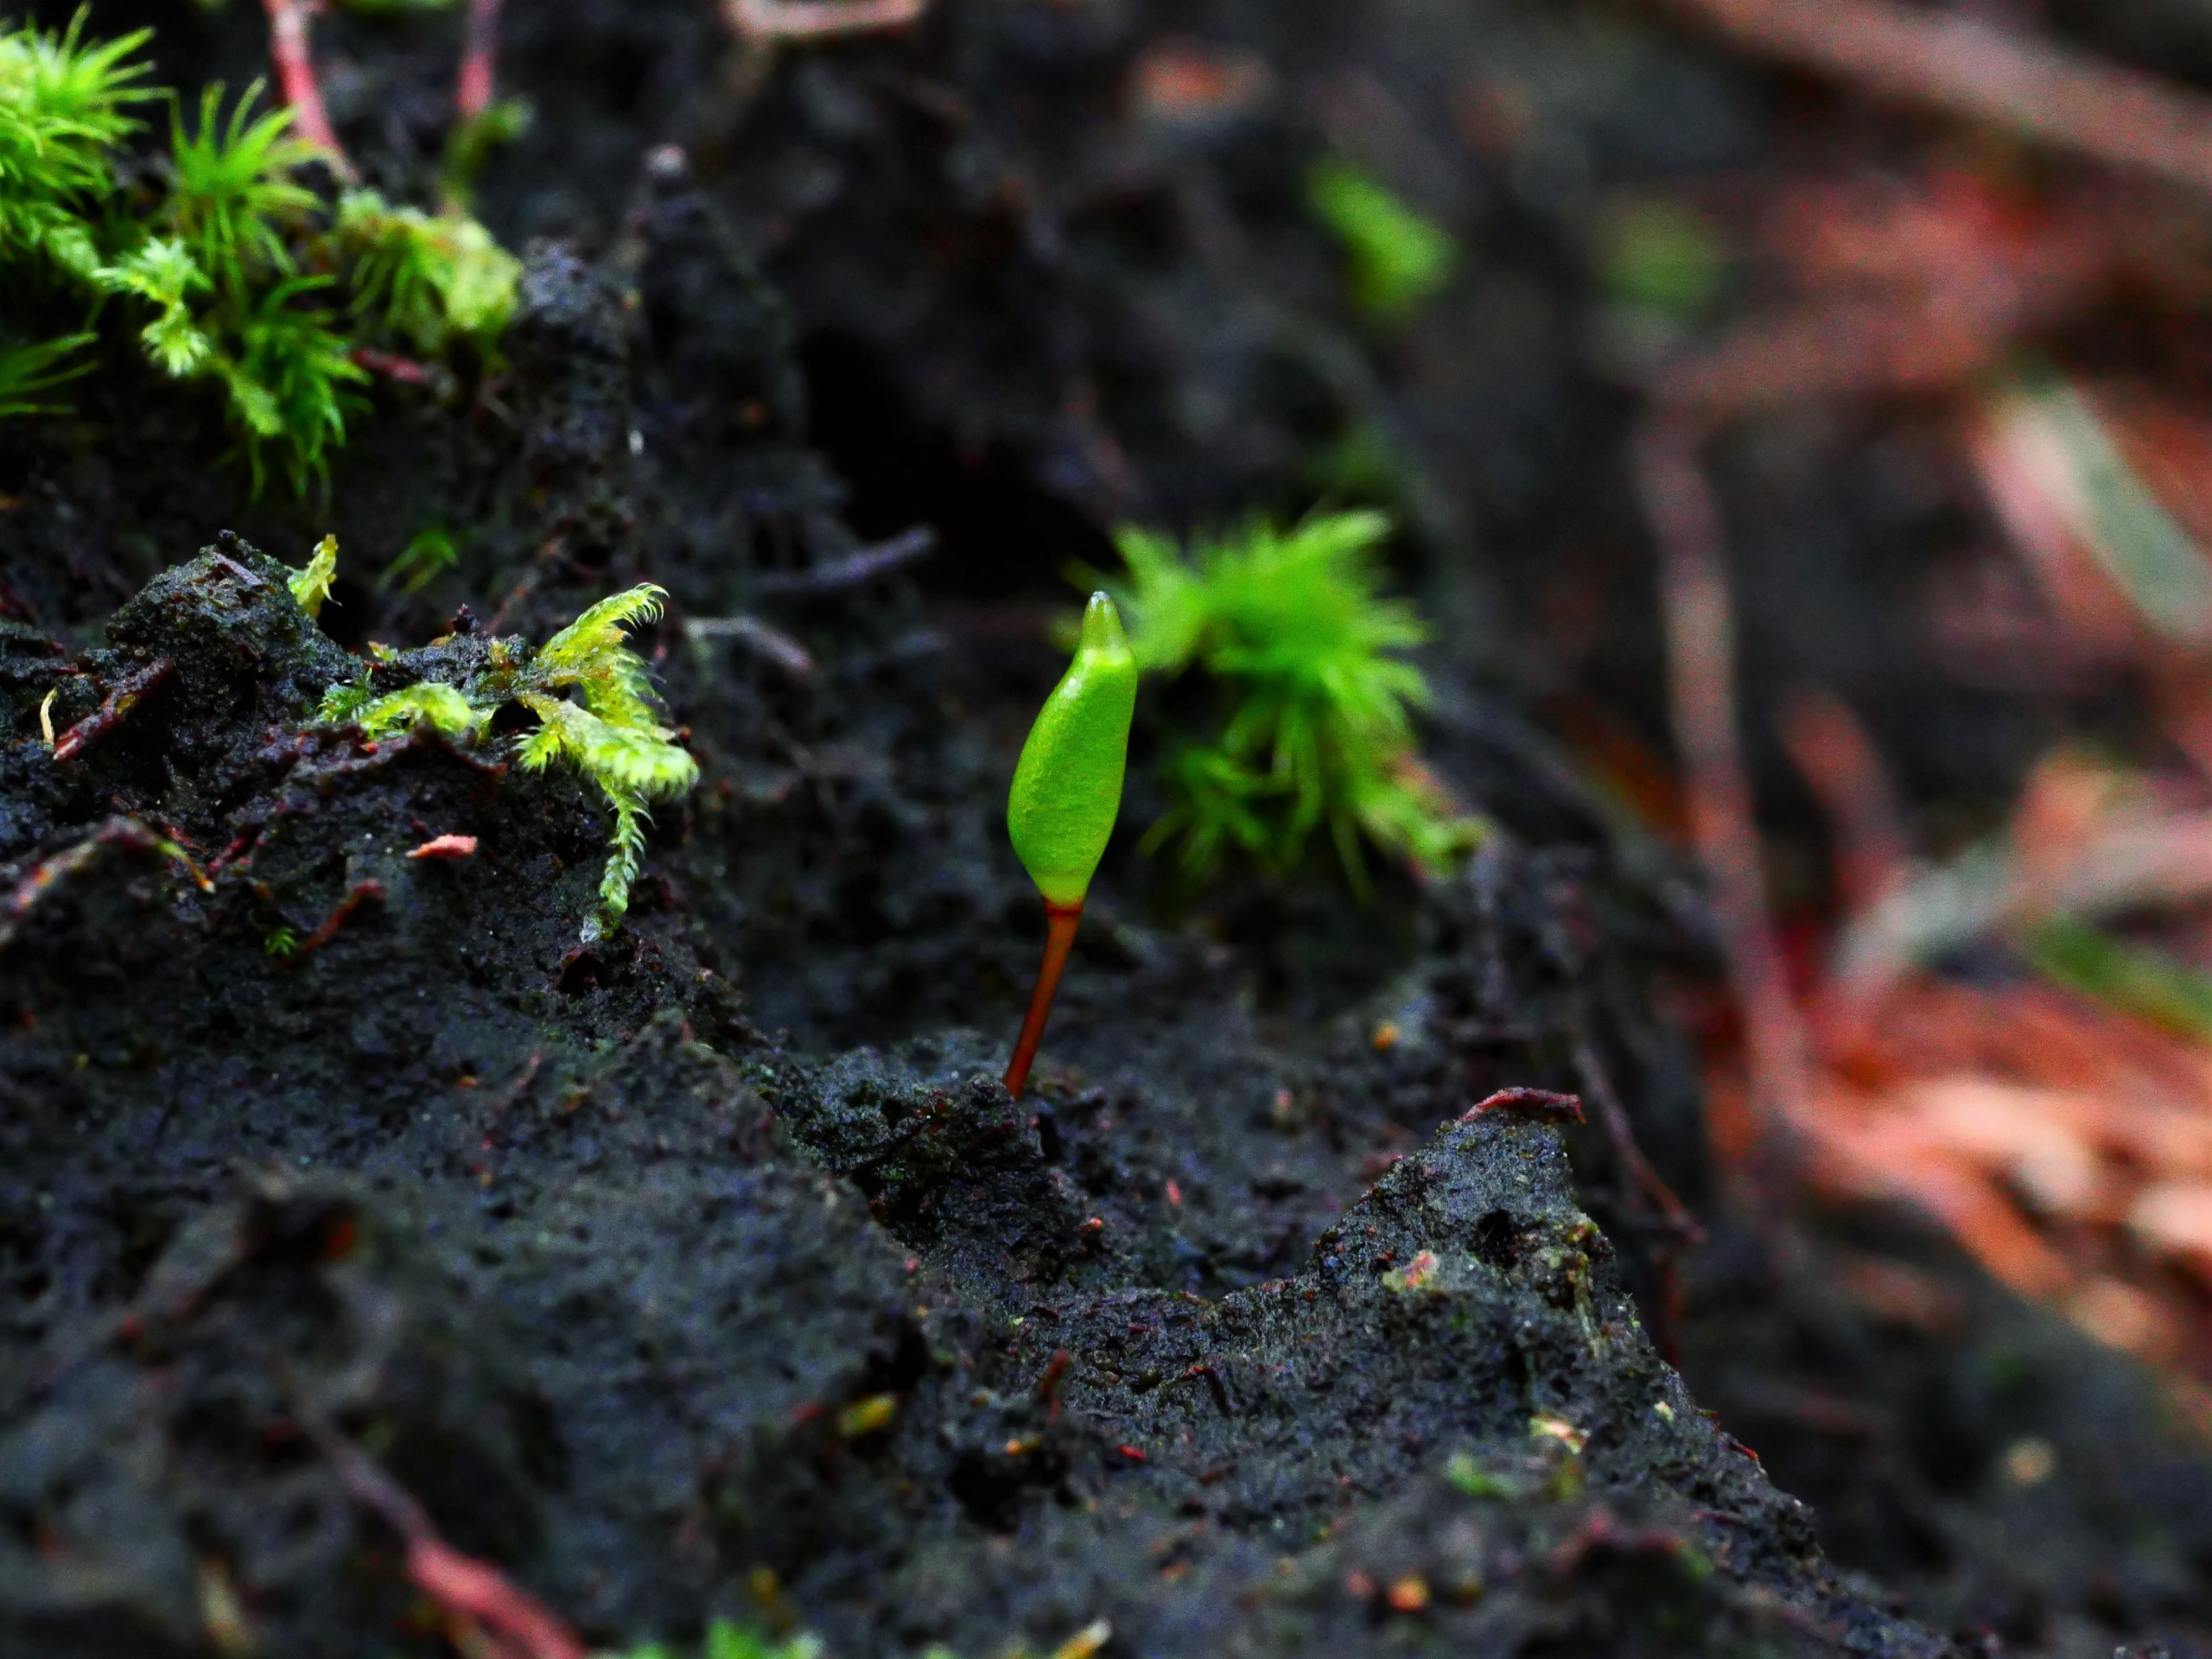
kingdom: Plantae
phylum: Bryophyta
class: Bryopsida
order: Buxbaumiales
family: Buxbaumiaceae
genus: Buxbaumia
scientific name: Buxbaumia viridis
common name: Grøn buxbaumia
